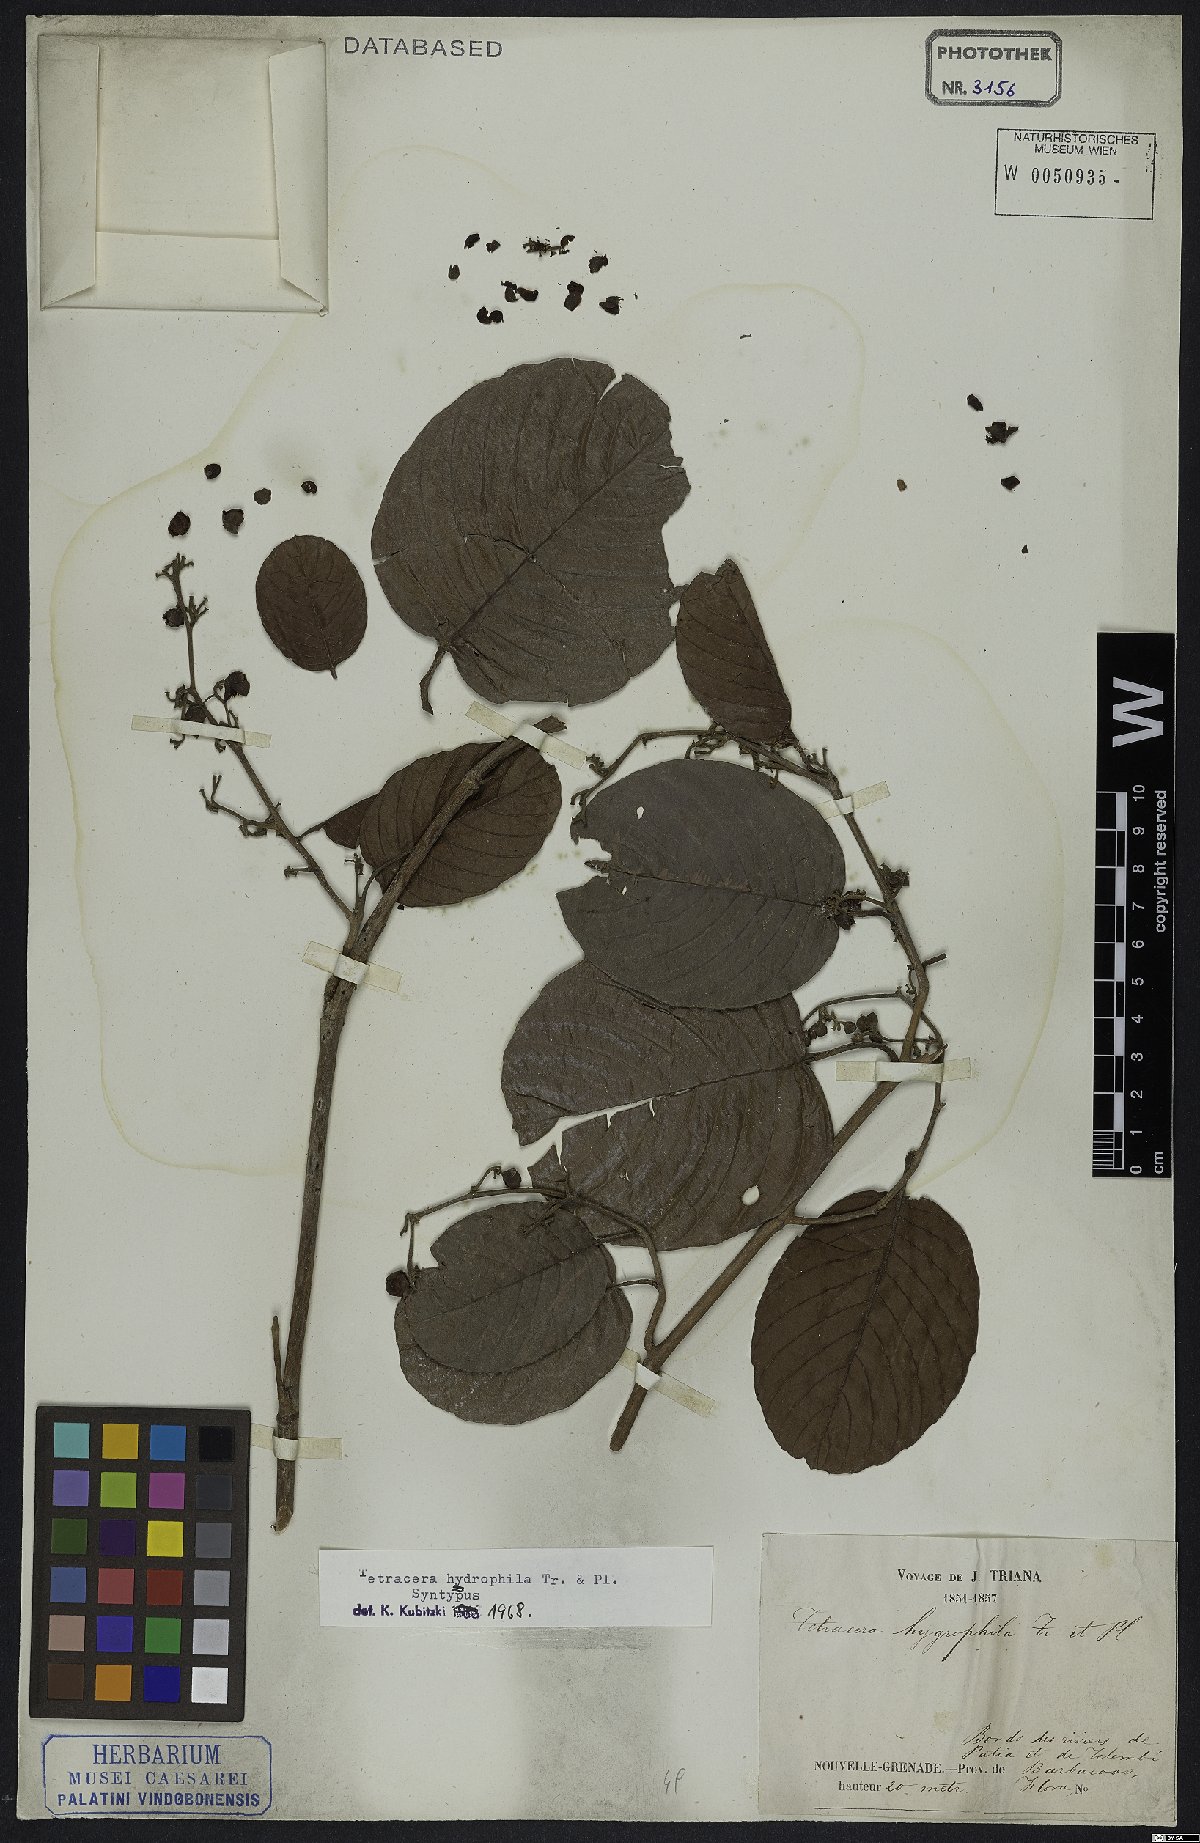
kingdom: Plantae
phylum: Tracheophyta
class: Magnoliopsida
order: Dilleniales
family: Dilleniaceae
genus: Tetracera
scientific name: Tetracera hydrophila
